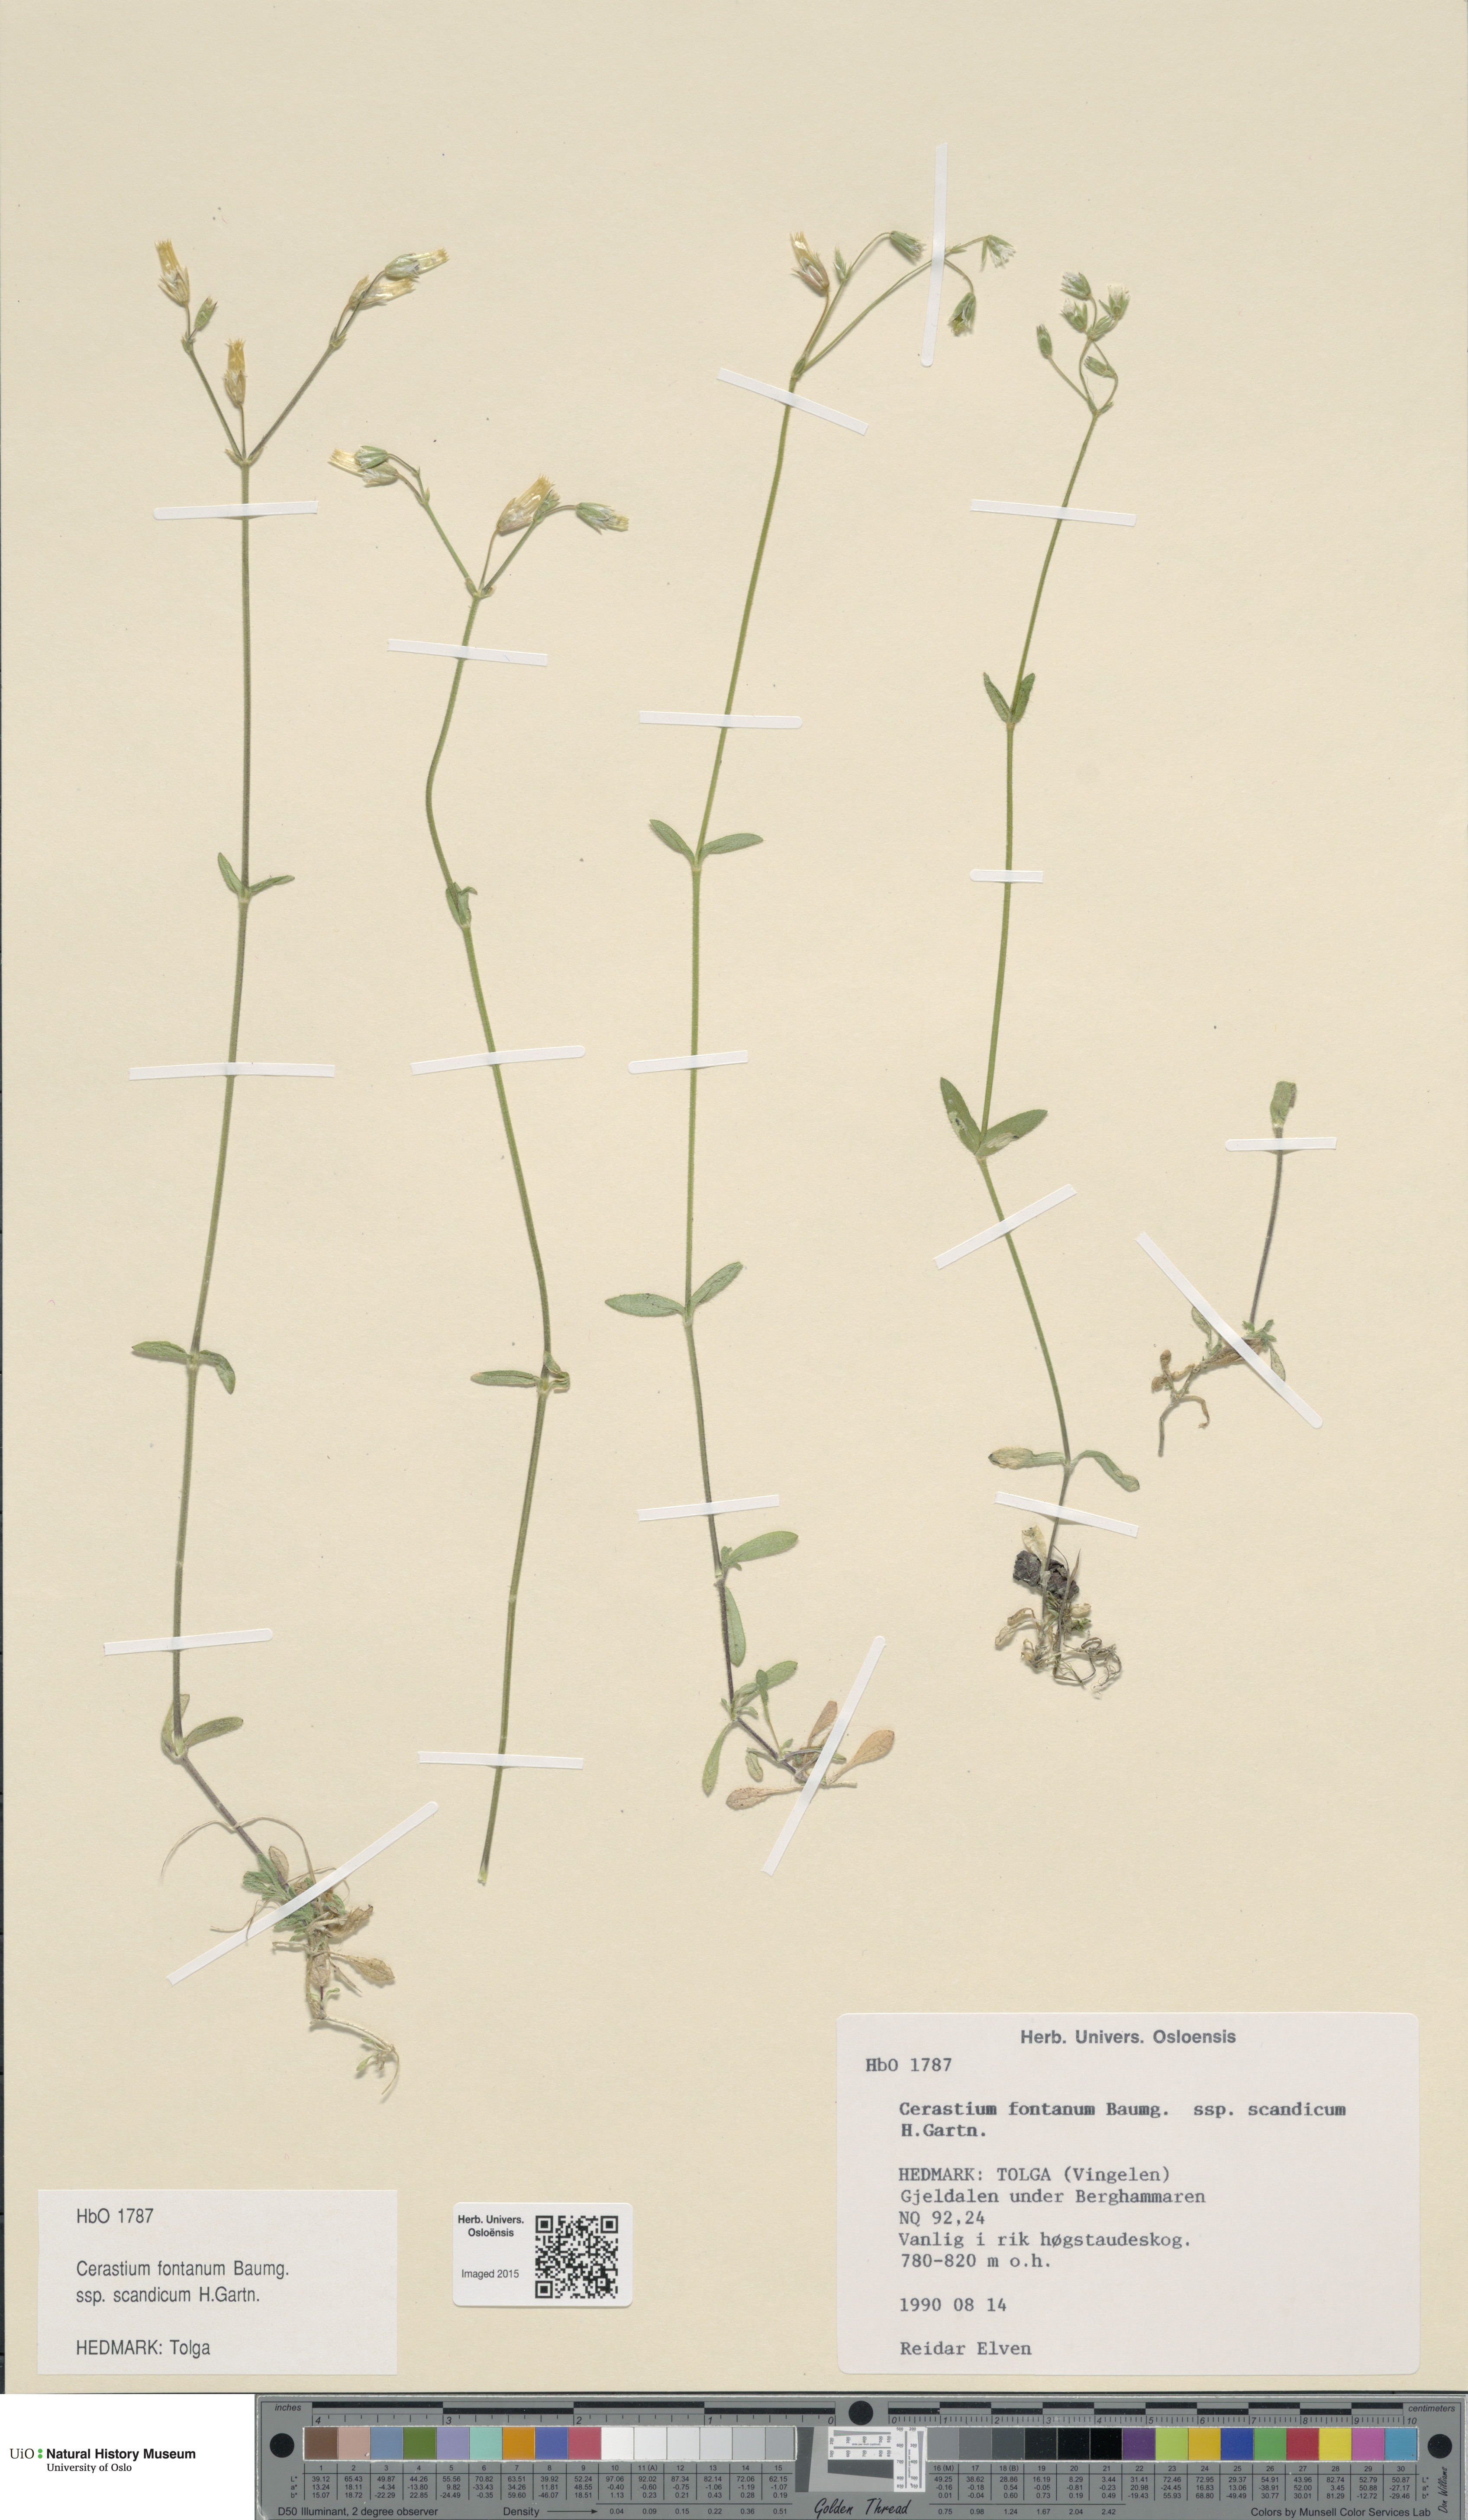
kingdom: Plantae
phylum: Tracheophyta
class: Magnoliopsida
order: Caryophyllales
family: Caryophyllaceae
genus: Cerastium
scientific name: Cerastium fontanum
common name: Common mouse-ear
